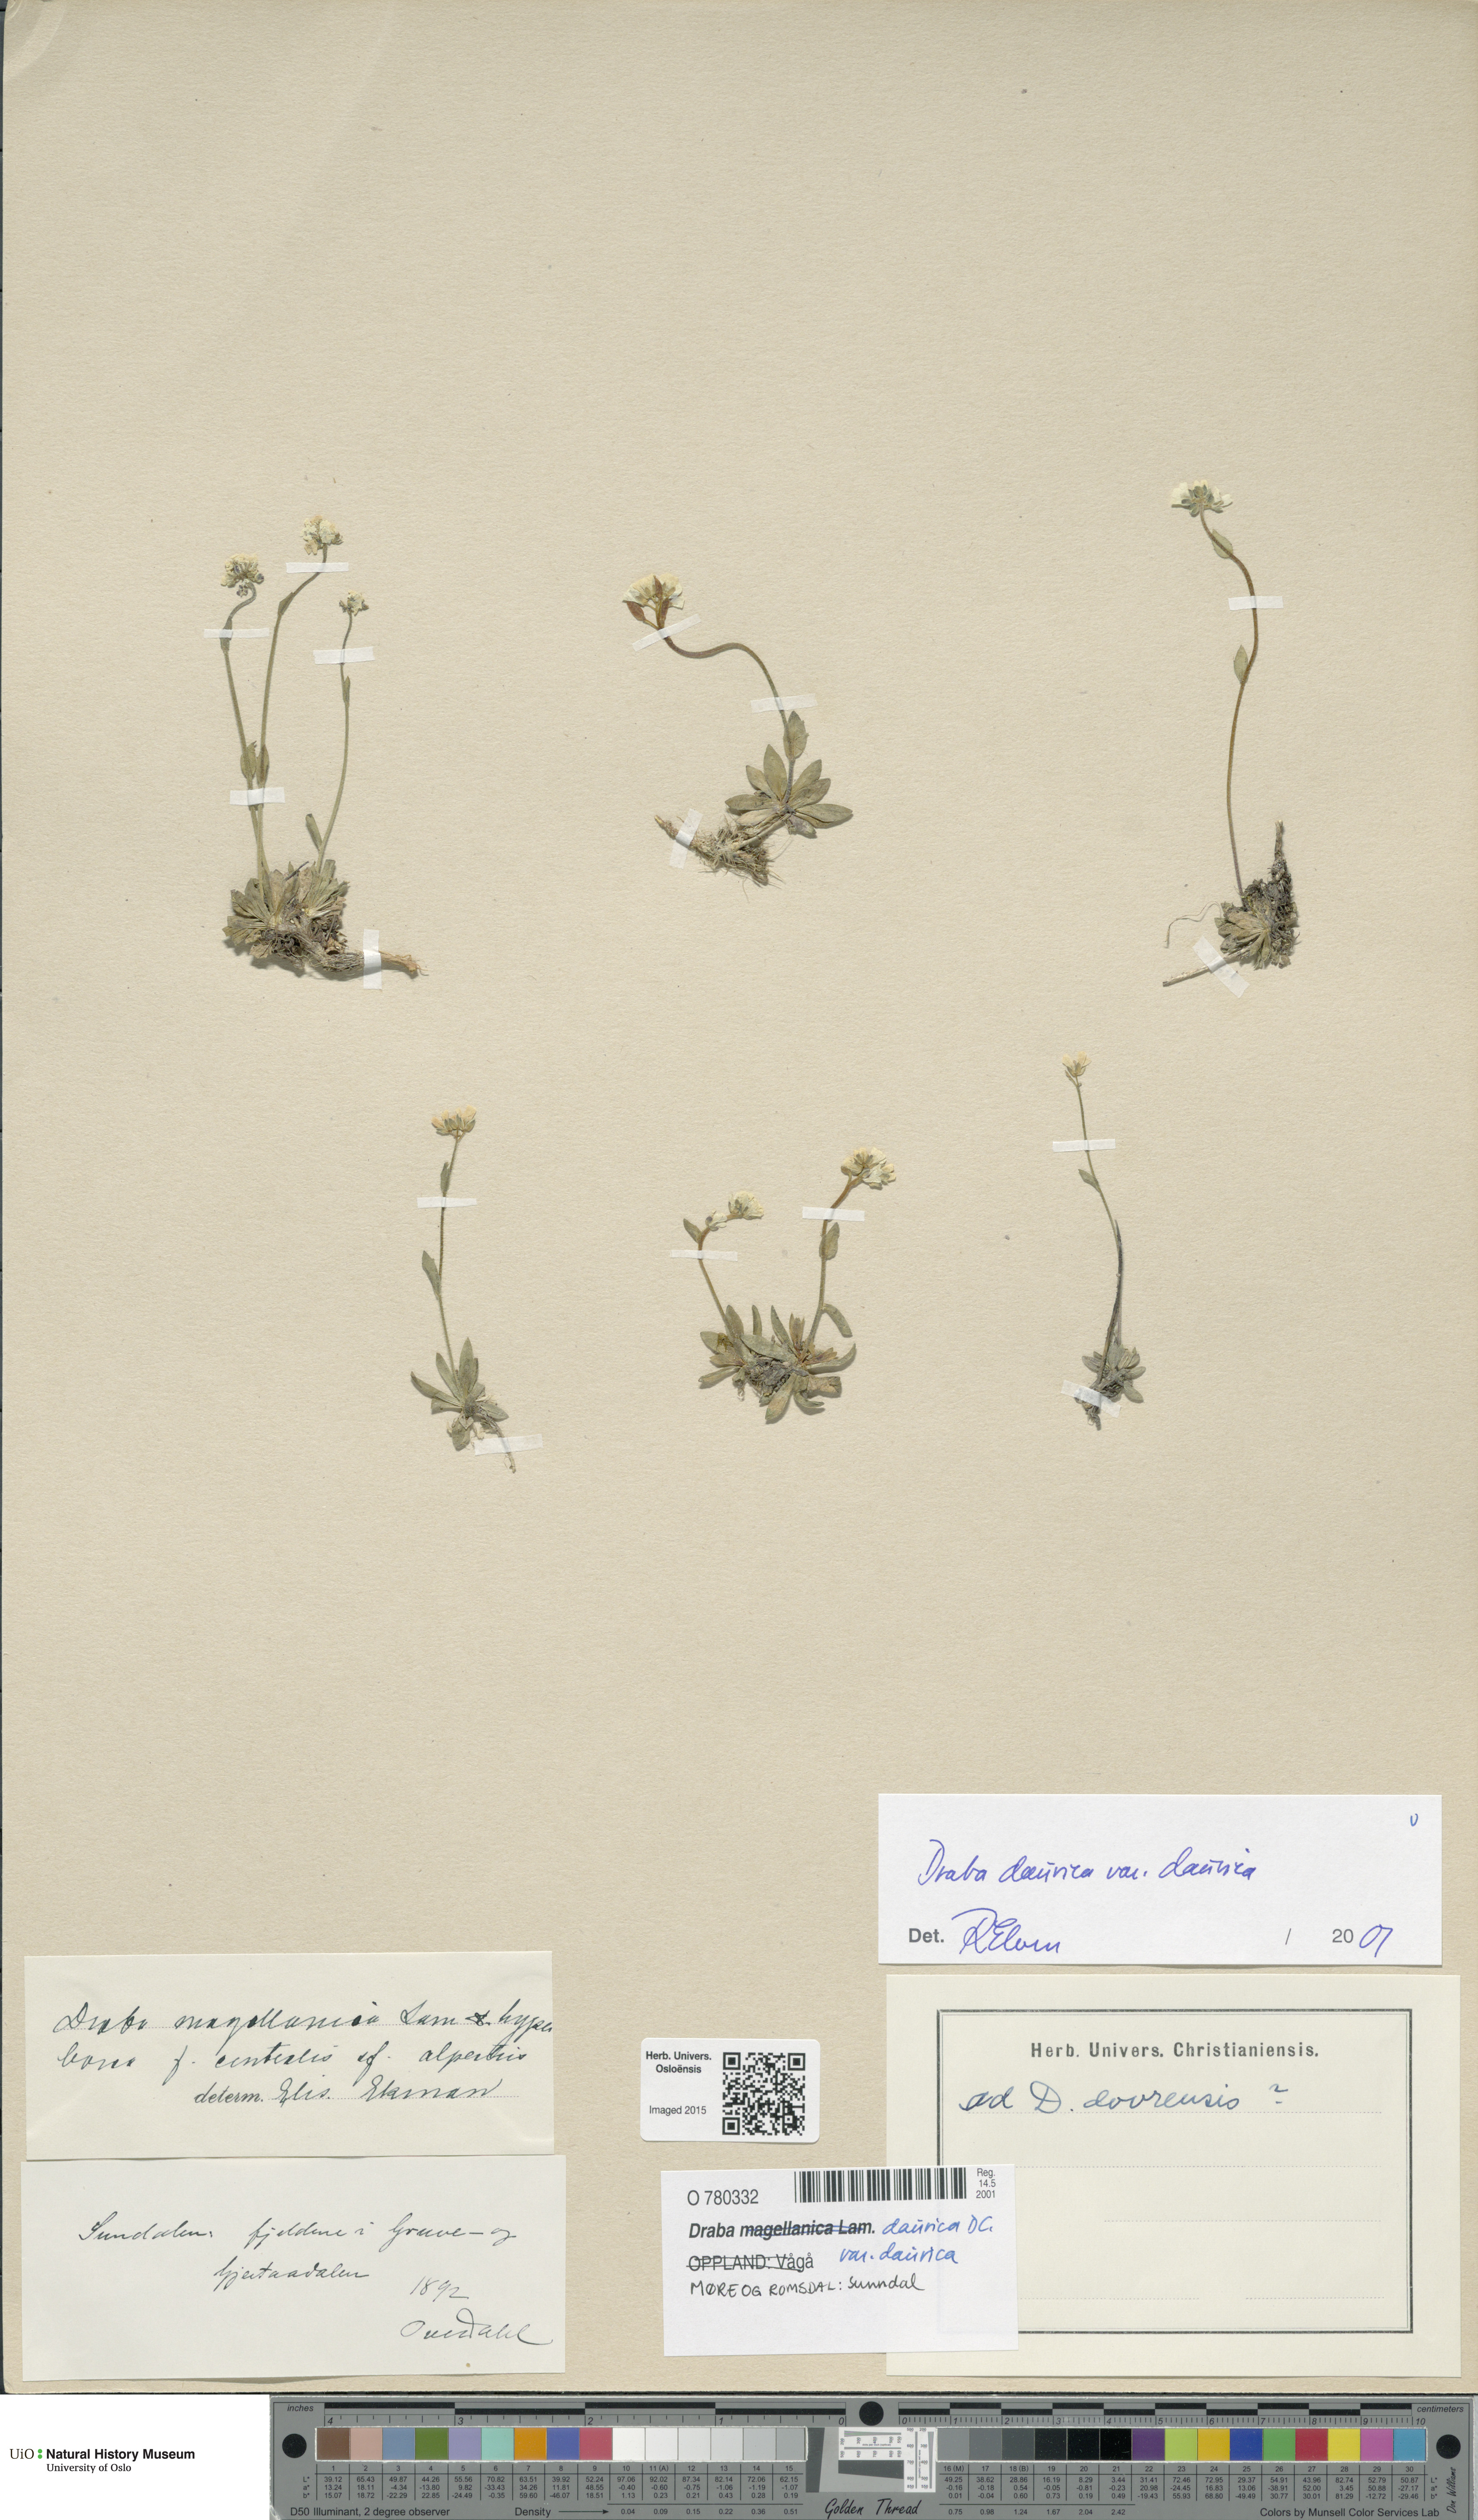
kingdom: Plantae
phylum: Tracheophyta
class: Magnoliopsida
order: Brassicales
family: Brassicaceae
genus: Draba
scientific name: Draba glabella
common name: Glaucous draba
